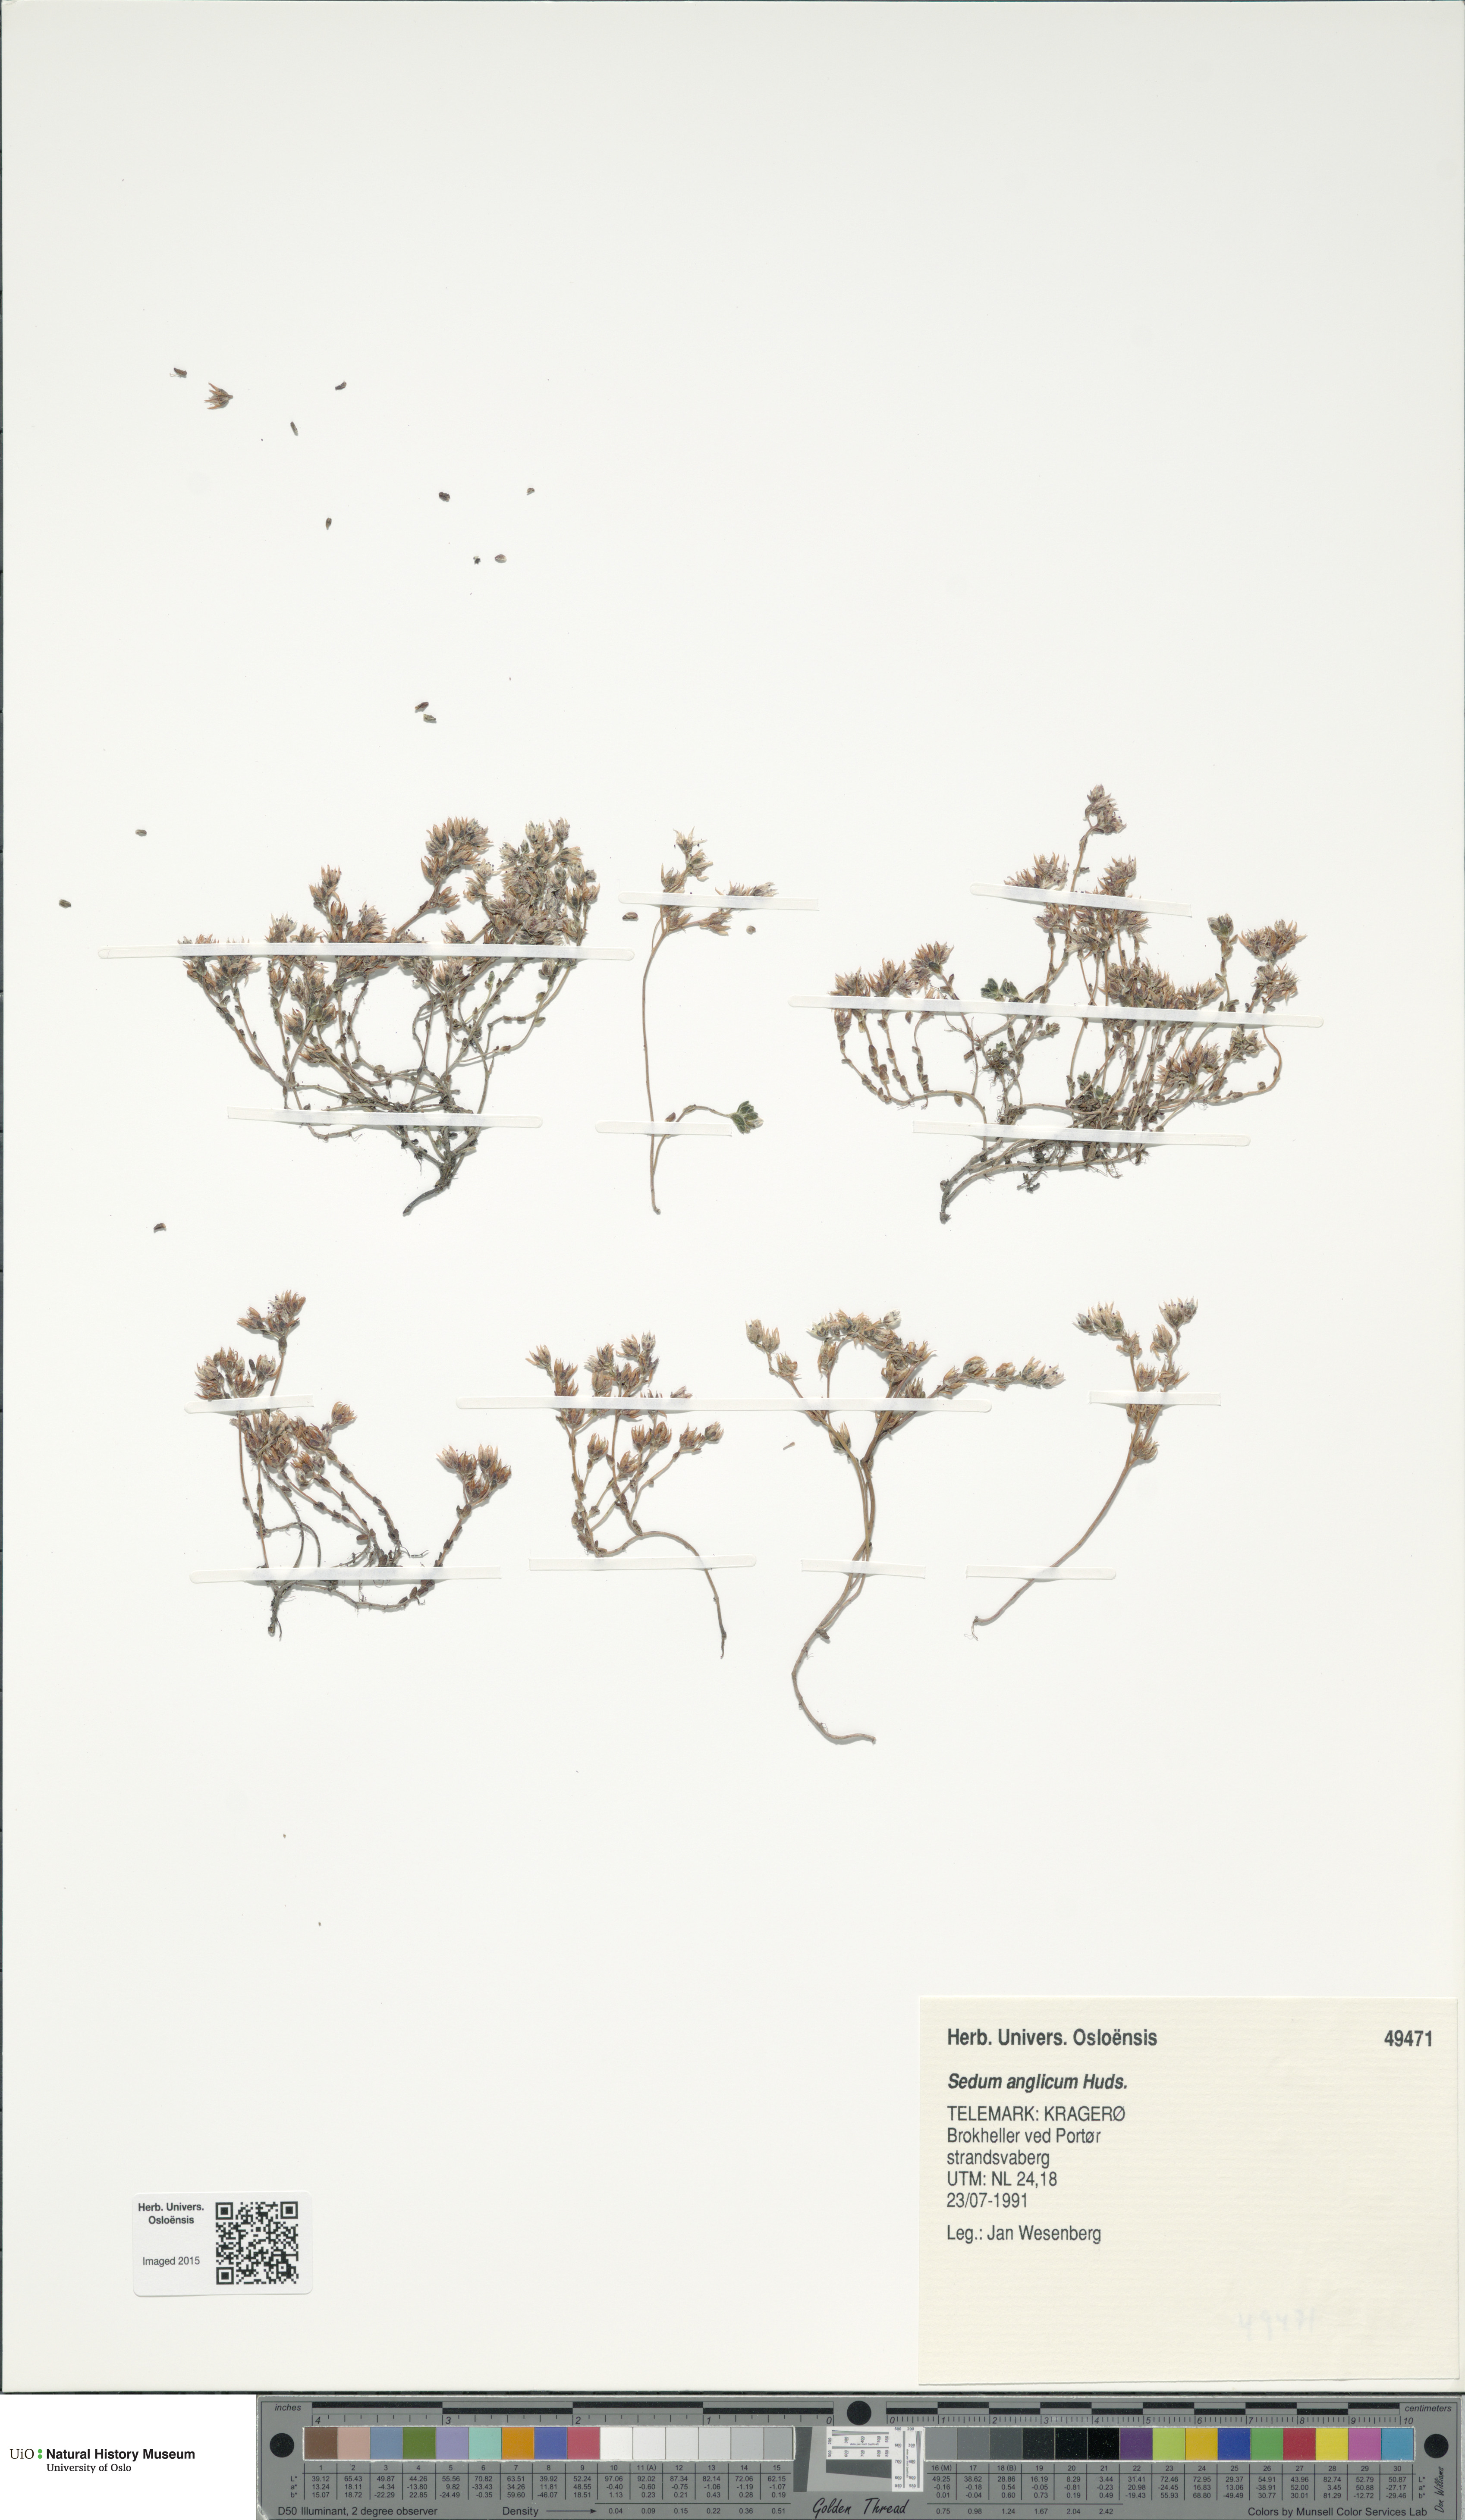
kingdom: Plantae
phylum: Tracheophyta
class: Magnoliopsida
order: Saxifragales
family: Crassulaceae
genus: Sedum
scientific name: Sedum anglicum
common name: English stonecrop
